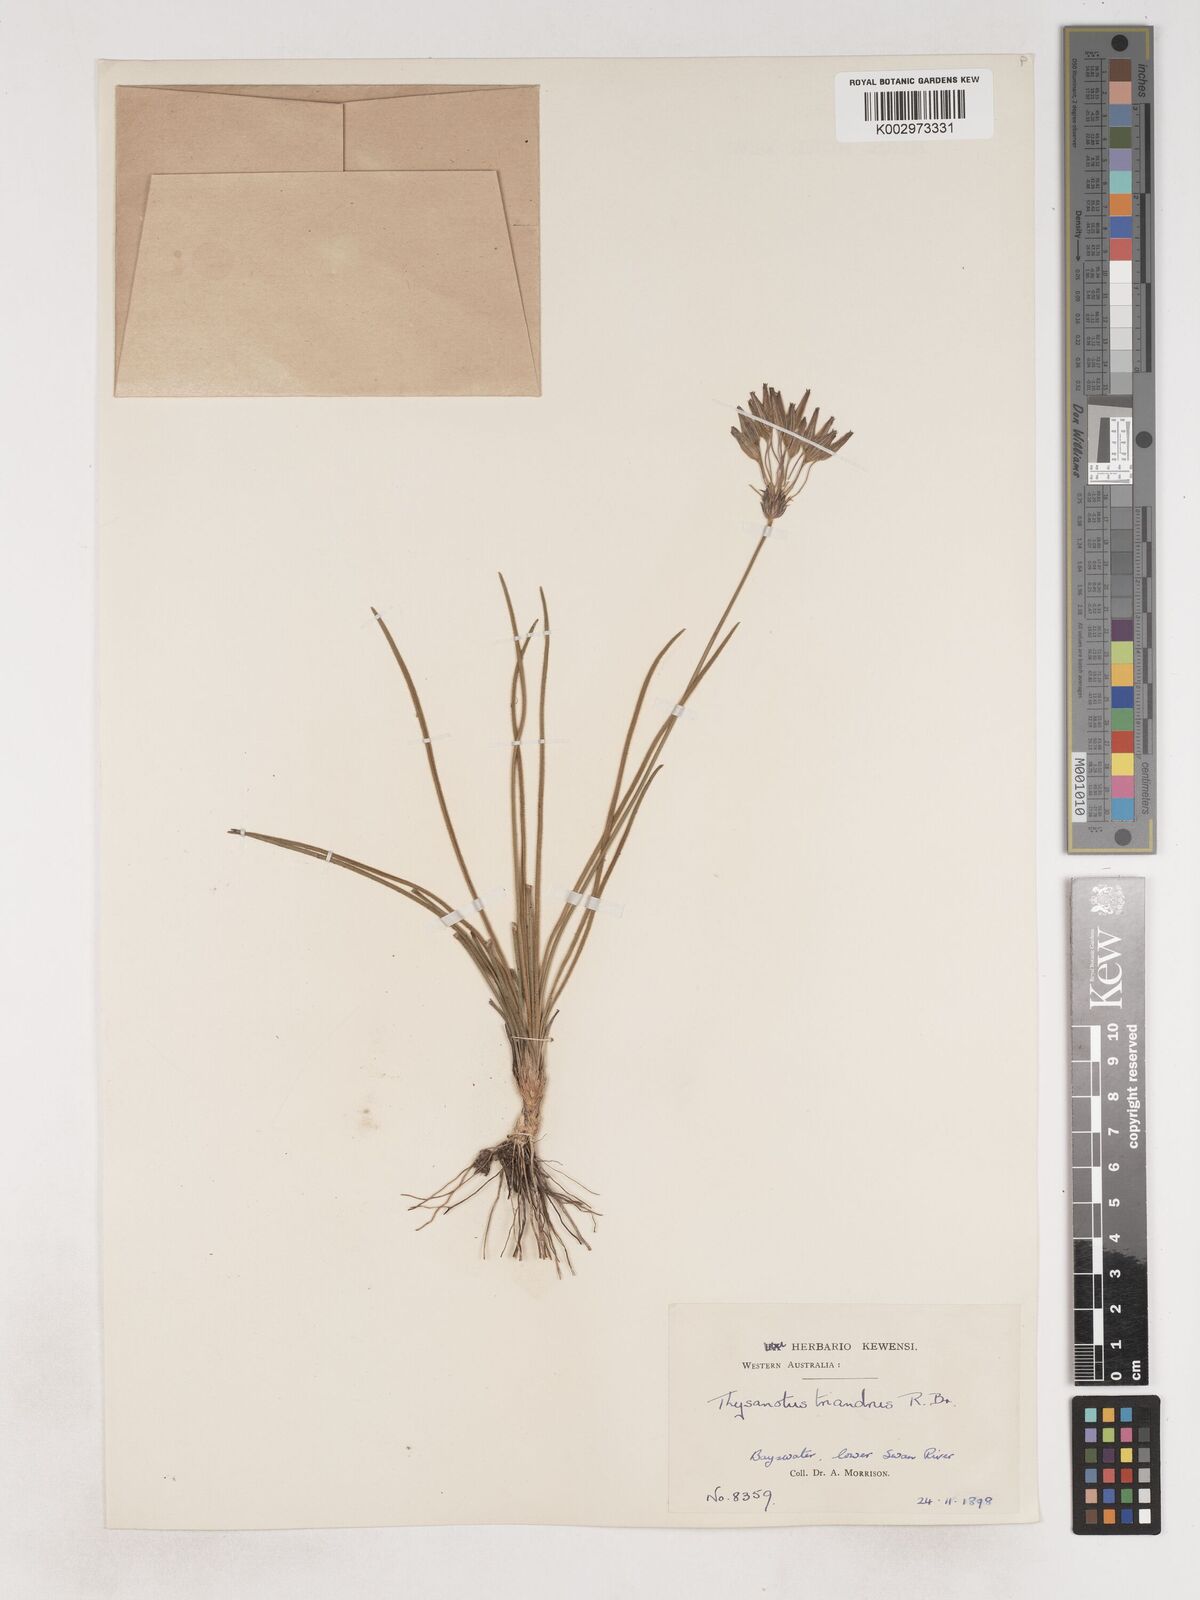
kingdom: Plantae
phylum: Tracheophyta
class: Liliopsida
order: Asparagales
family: Asparagaceae
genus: Thysanotus
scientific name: Thysanotus triandrus
